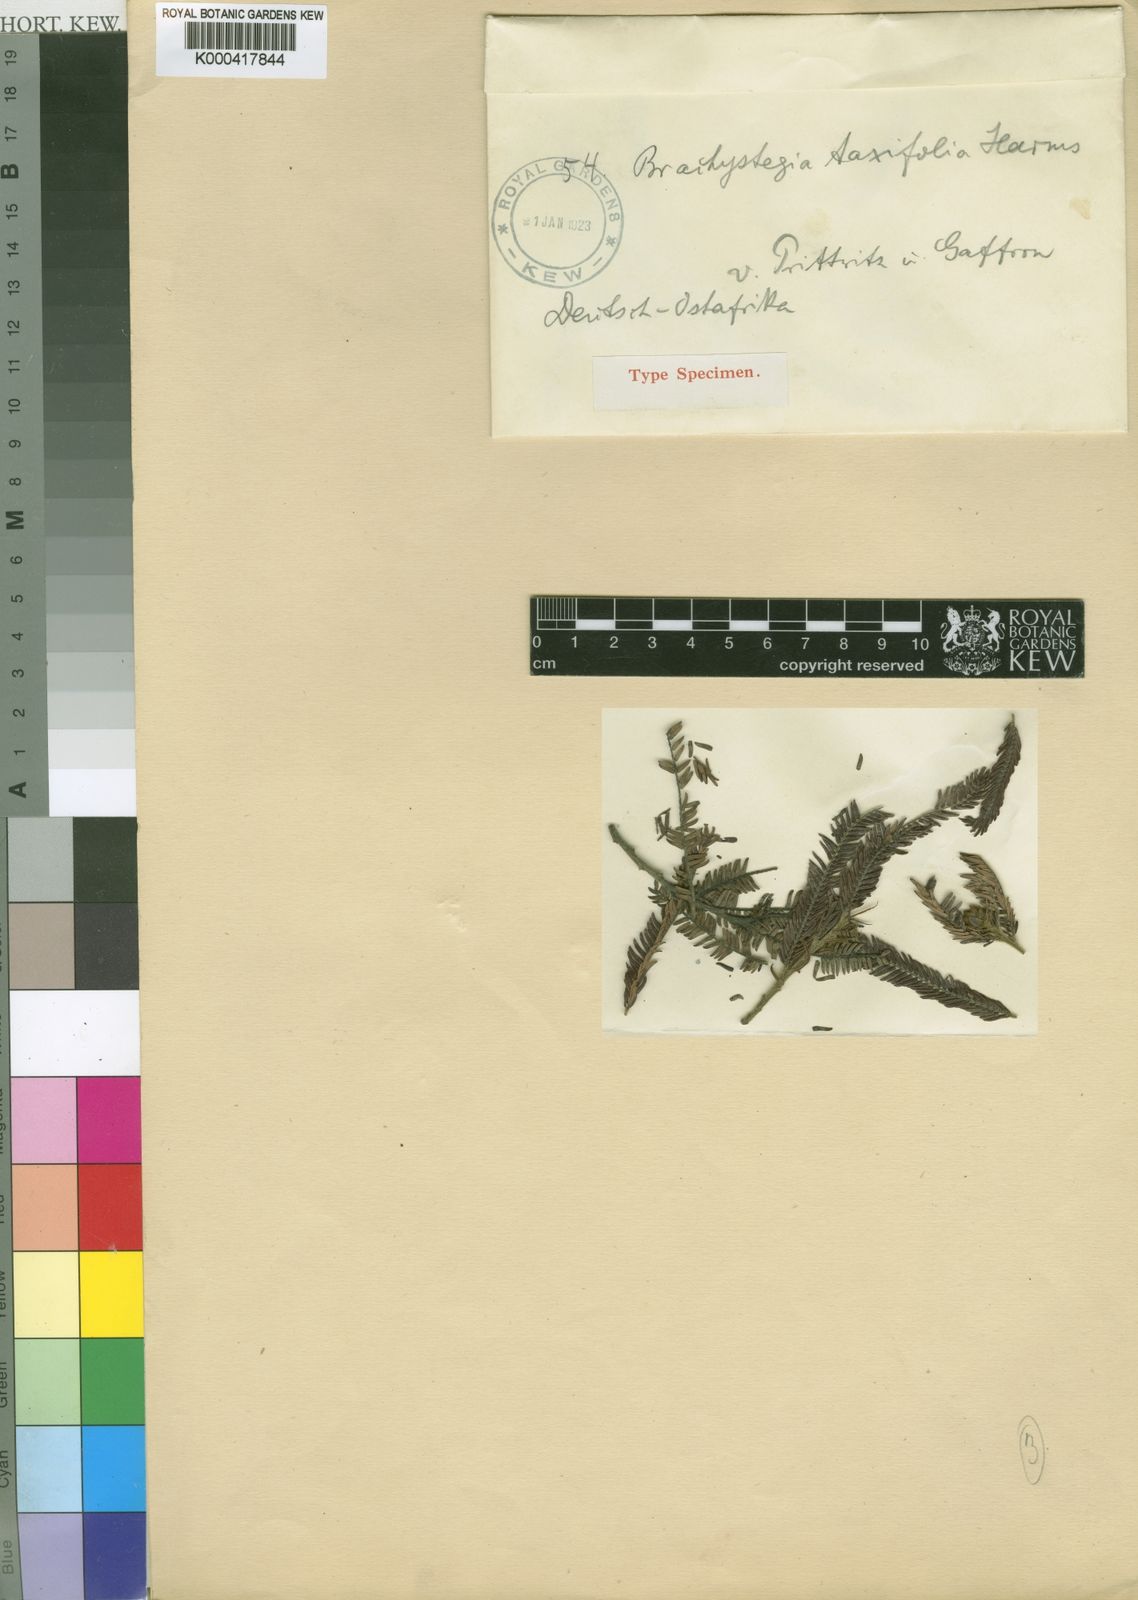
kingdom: Plantae
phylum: Tracheophyta
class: Magnoliopsida
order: Fabales
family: Fabaceae
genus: Brachystegia
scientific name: Brachystegia taxifolia
